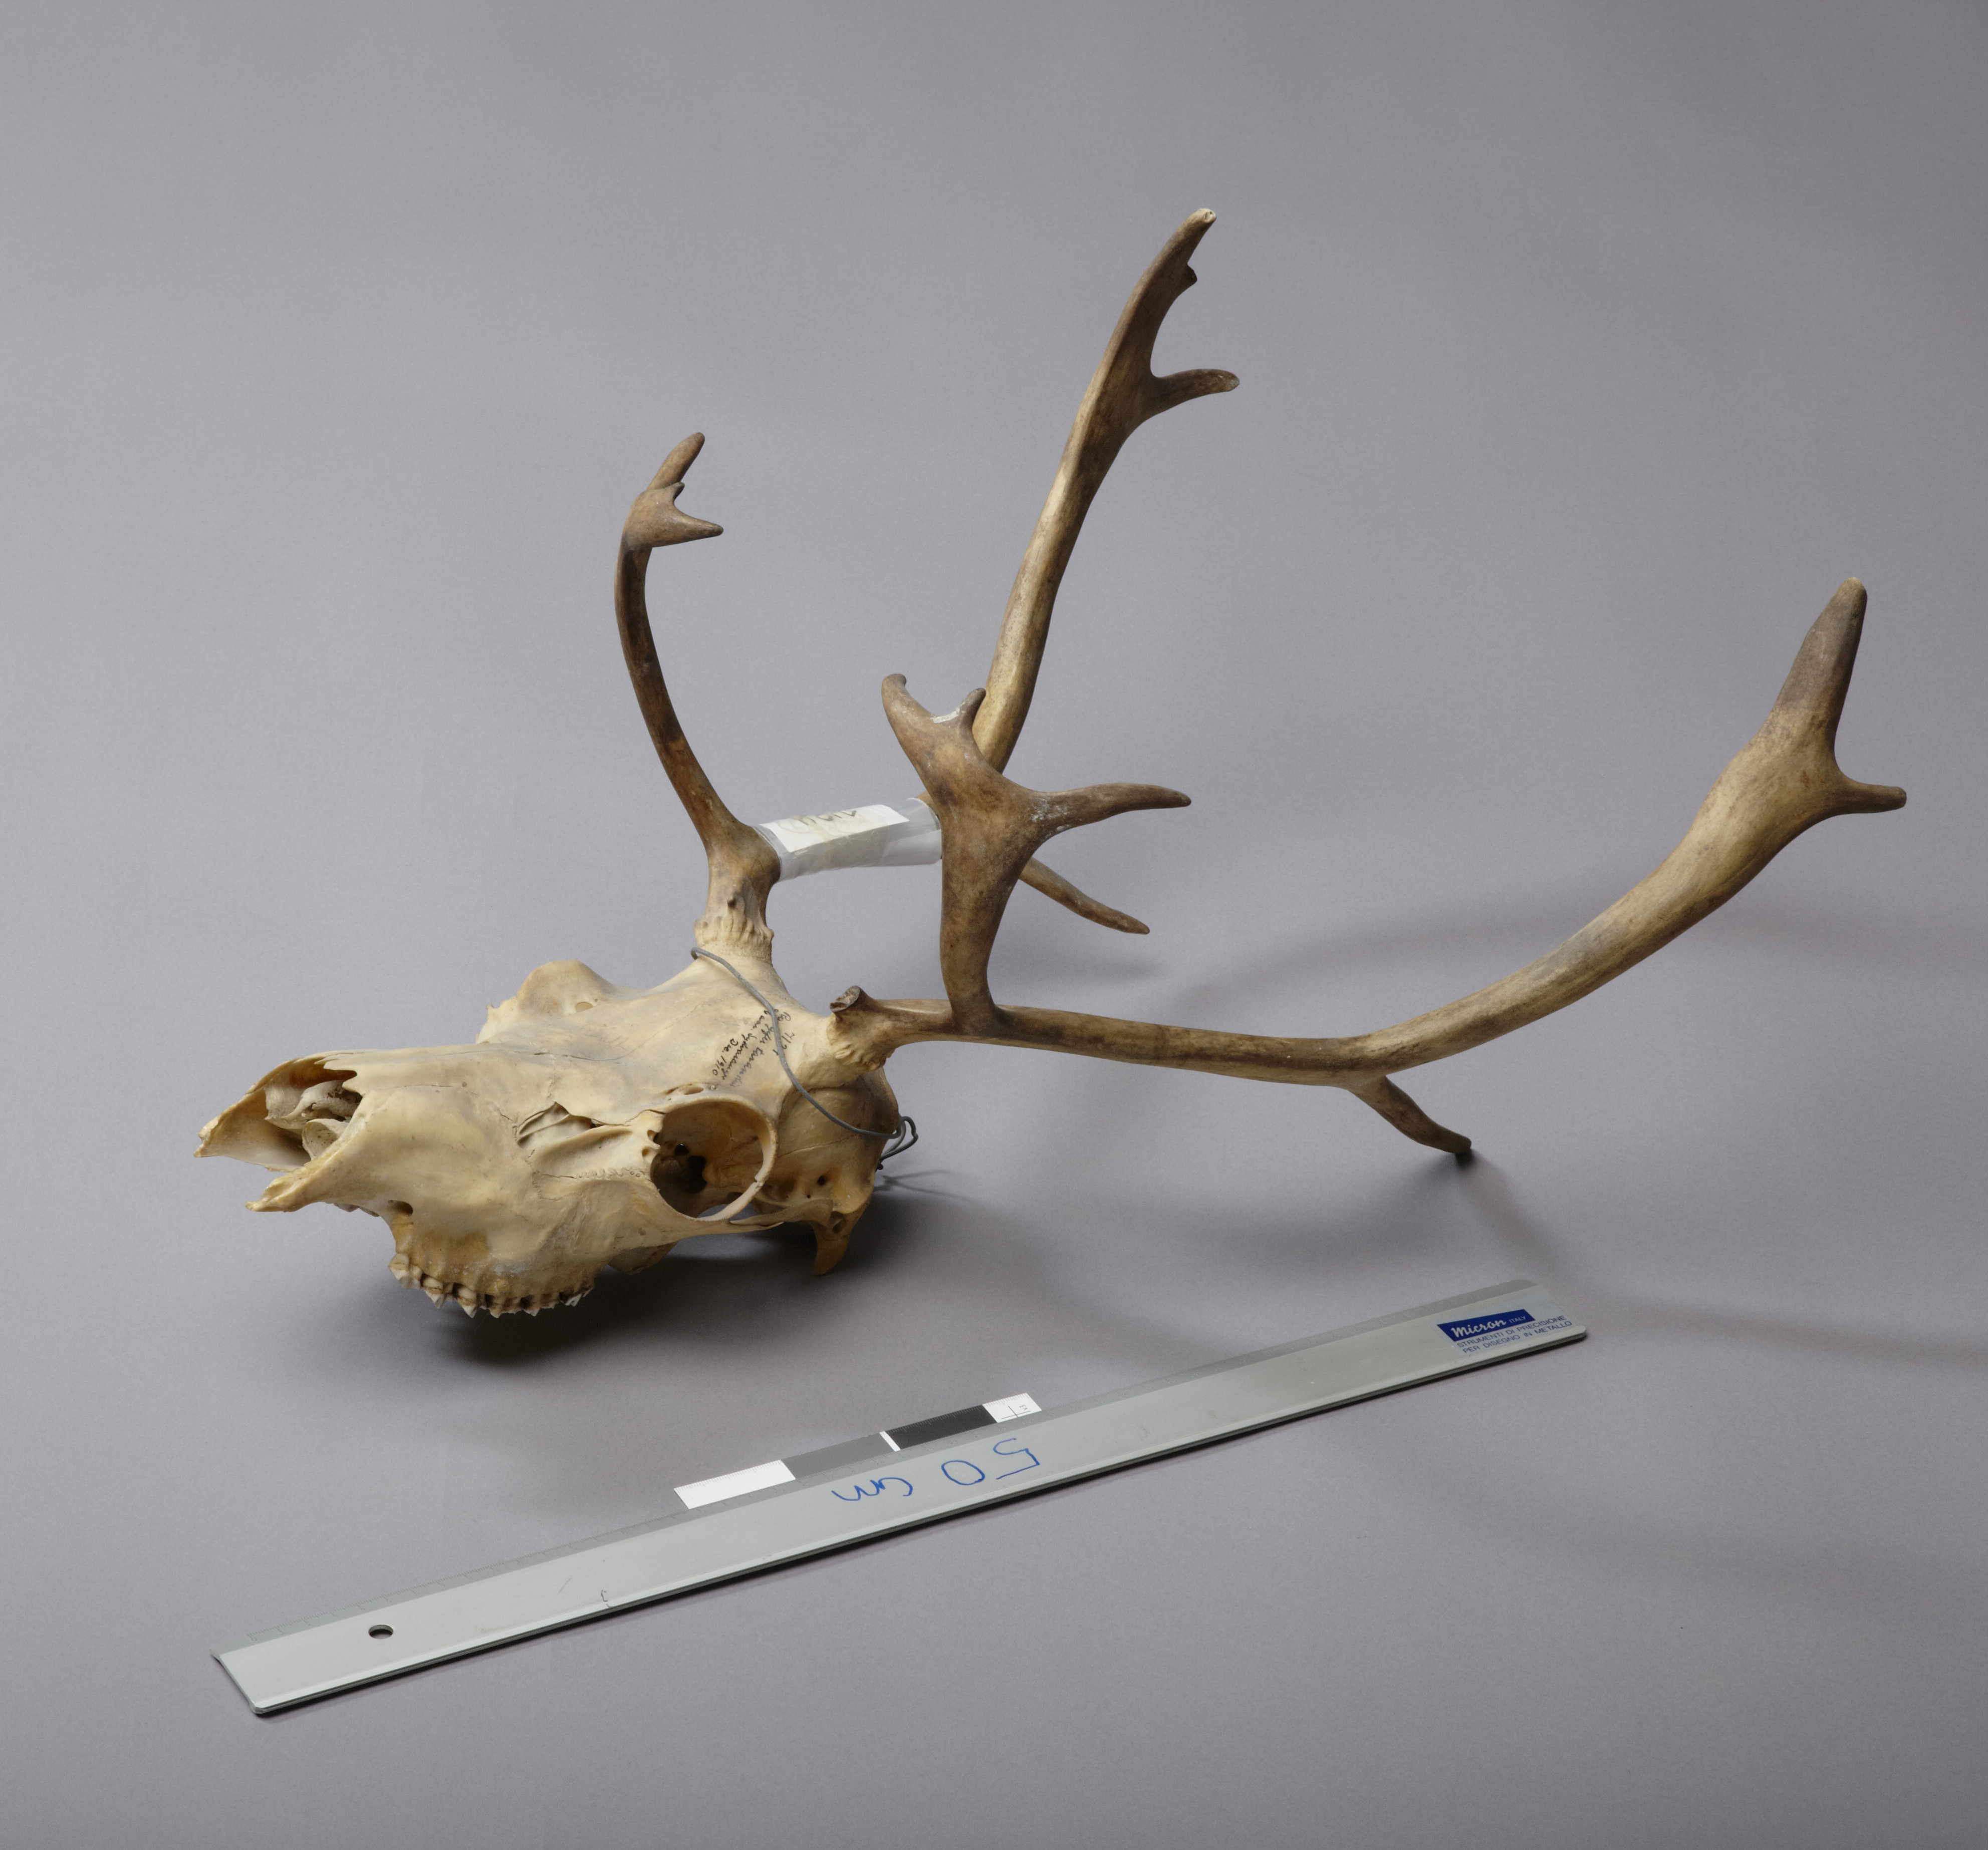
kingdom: Animalia
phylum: Chordata
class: Mammalia
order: Artiodactyla
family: Cervidae
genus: Rangifer
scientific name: Rangifer tarandus
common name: Reindeer
